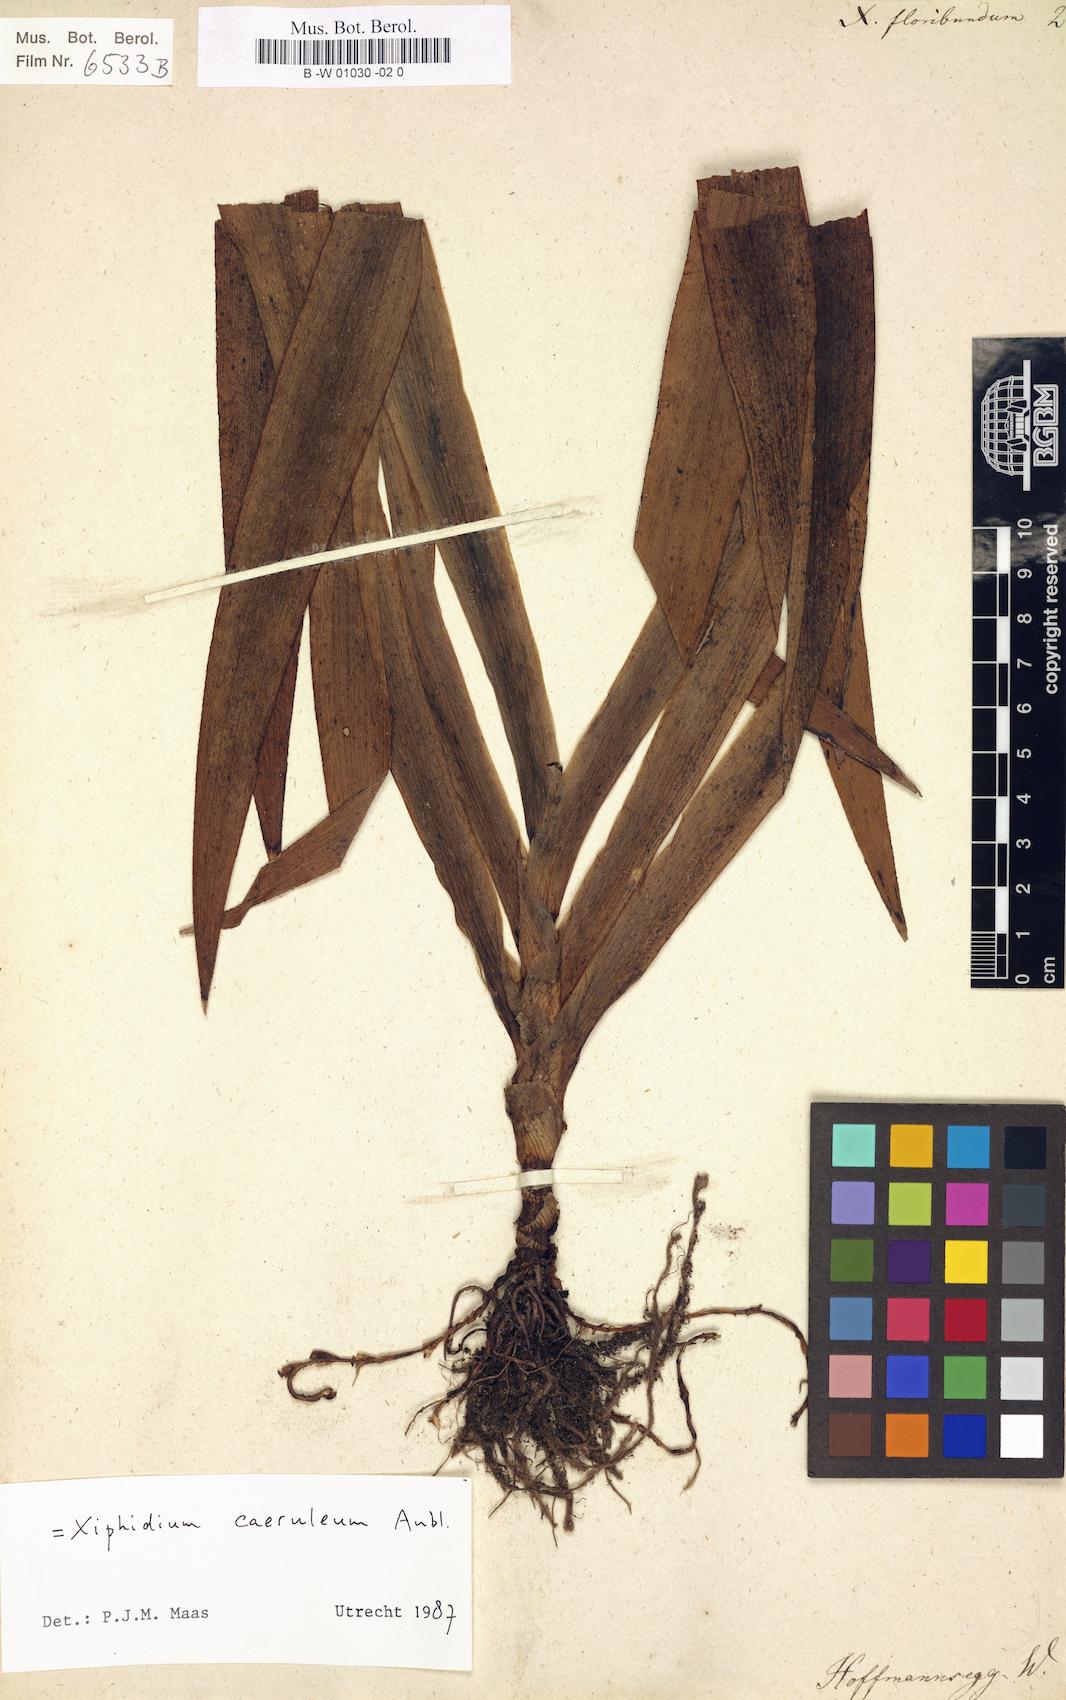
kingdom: Plantae
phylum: Tracheophyta
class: Liliopsida
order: Commelinales
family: Haemodoraceae
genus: Xiphidium
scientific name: Xiphidium caeruleum
